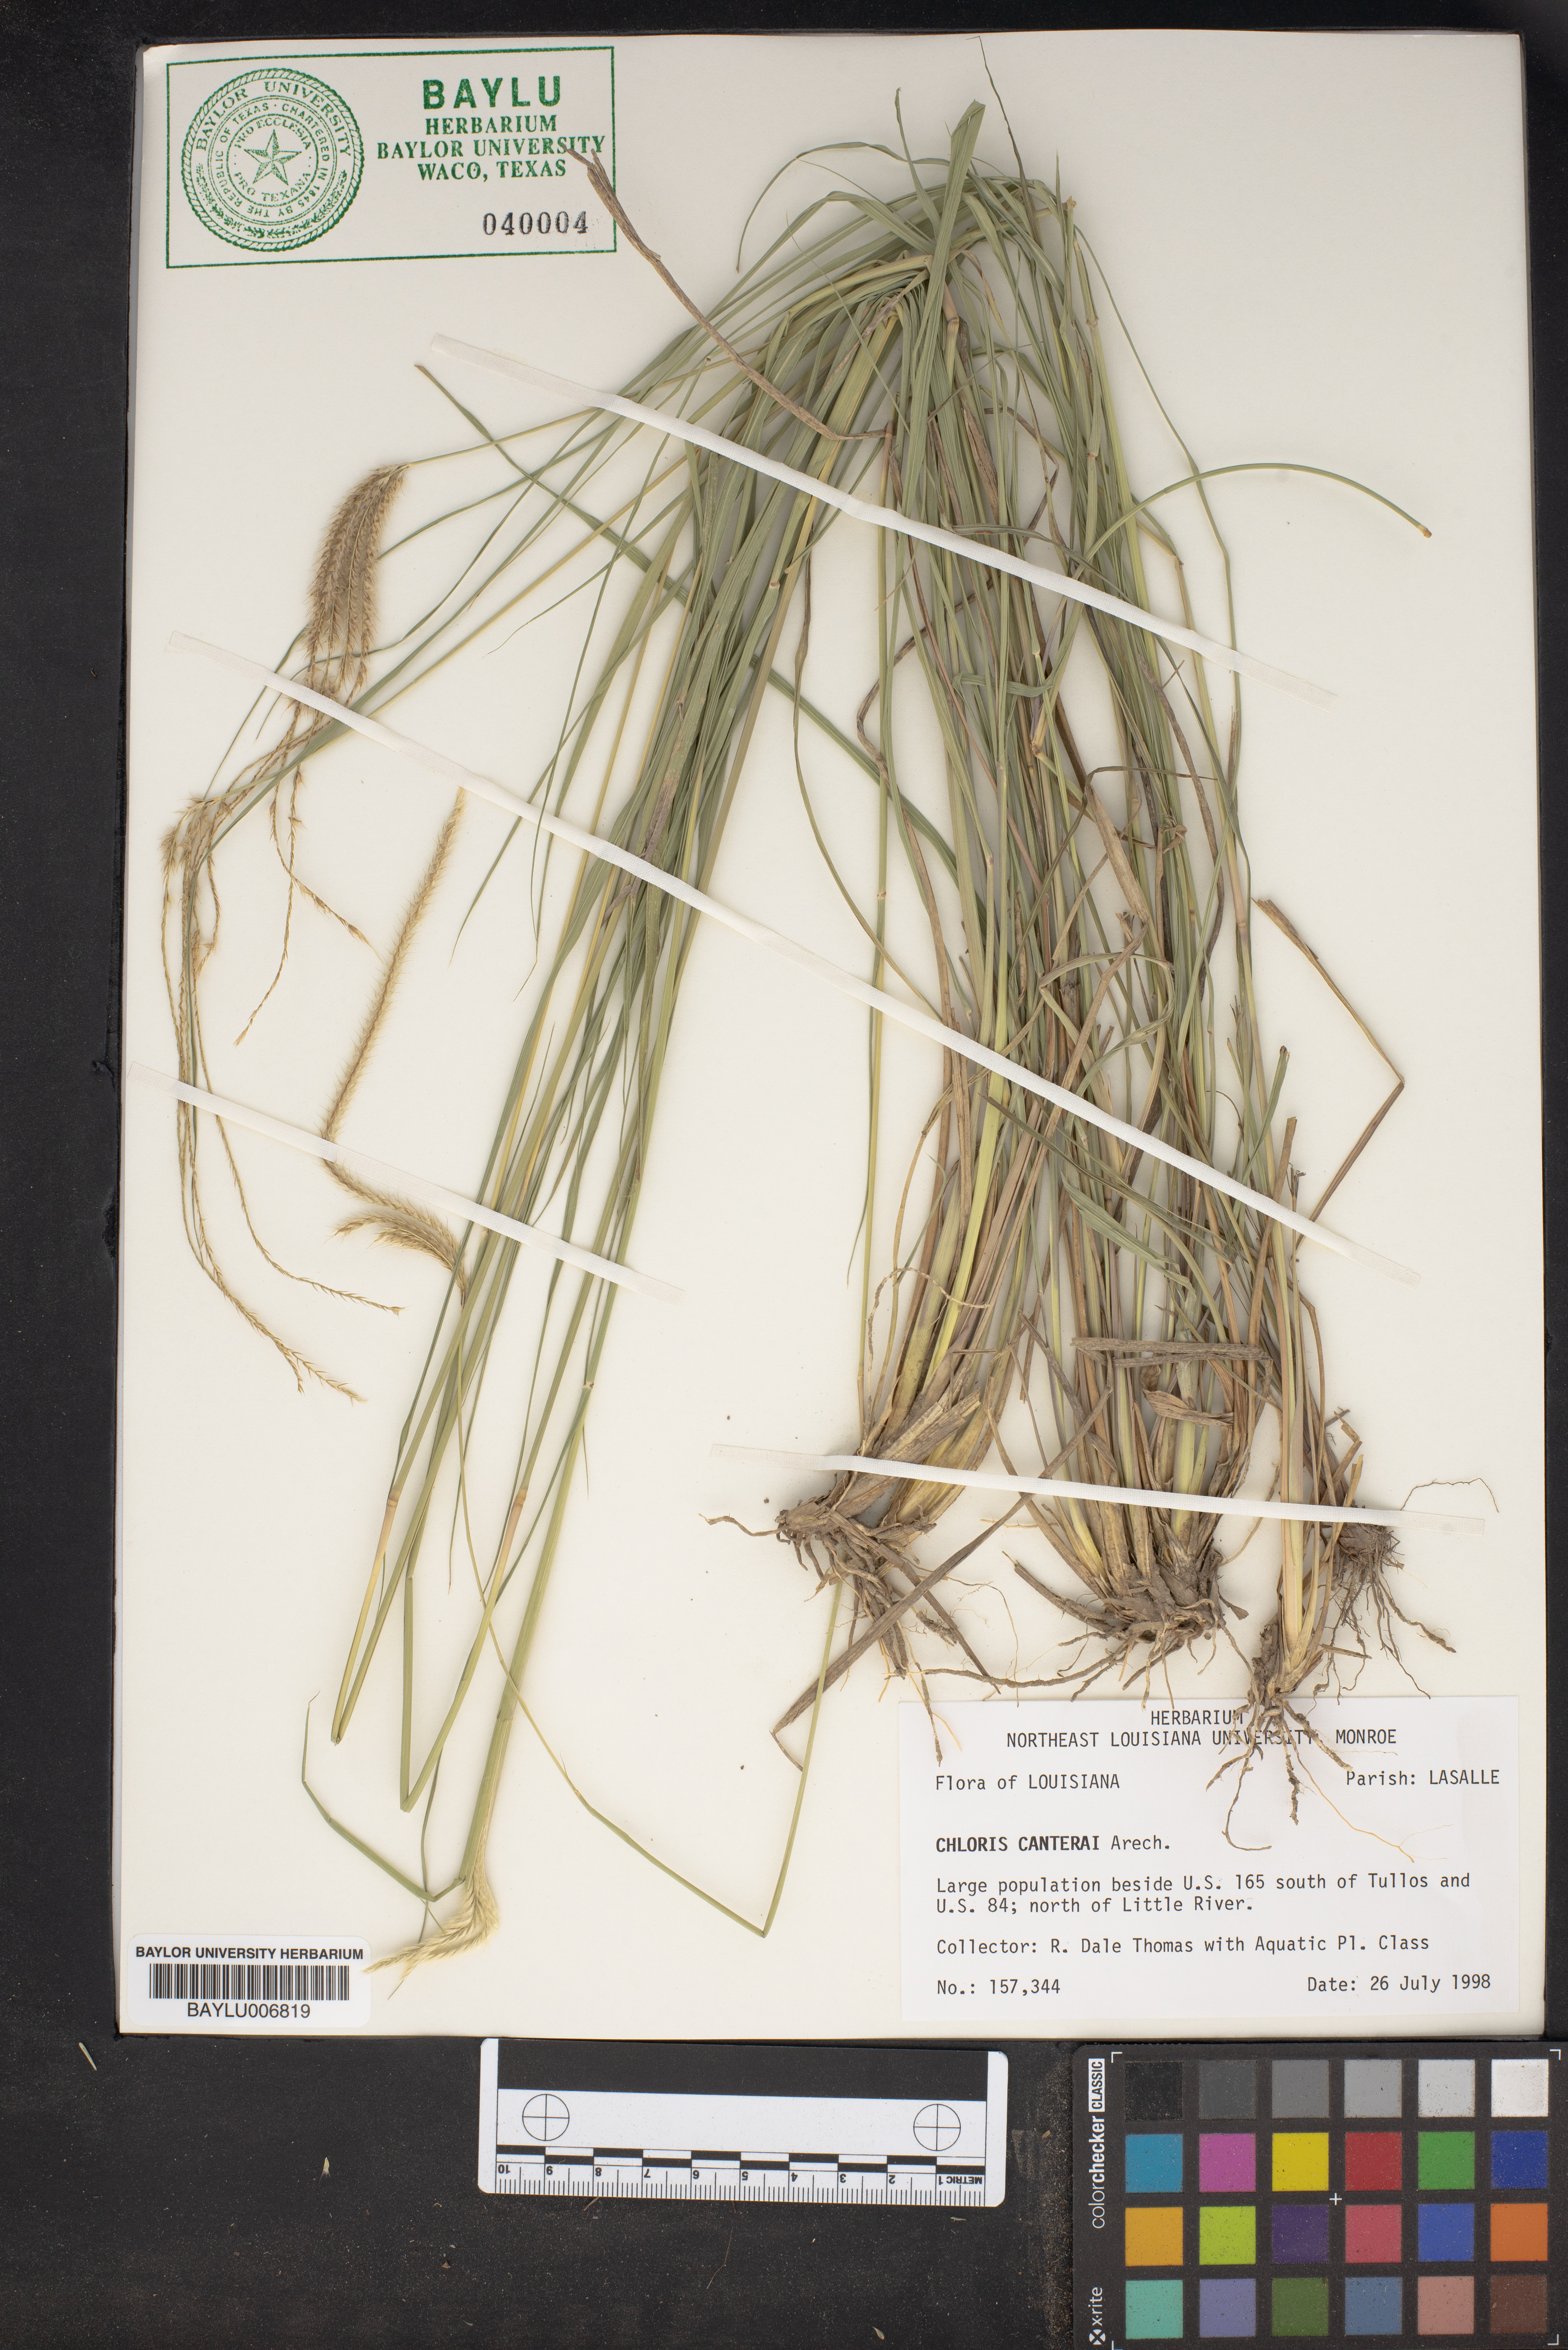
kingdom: Plantae
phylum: Tracheophyta
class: Liliopsida
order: Poales
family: Poaceae
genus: Stapfochloa
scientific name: Stapfochloa canterae
